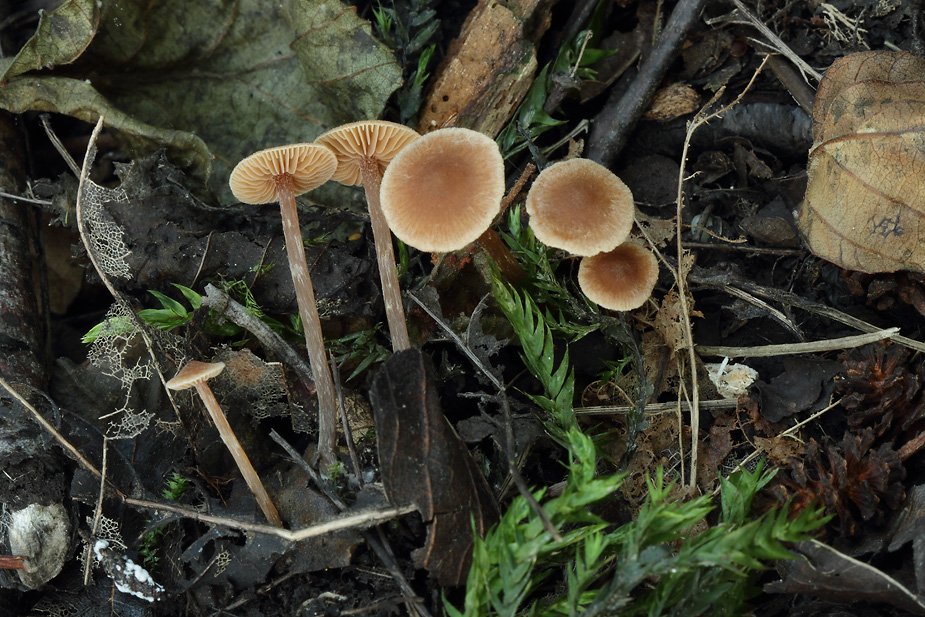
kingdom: Fungi
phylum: Basidiomycota
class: Agaricomycetes
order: Agaricales
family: Hymenogastraceae
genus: Naucoria
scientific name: Naucoria scolecina
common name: mørk elle-knaphat
